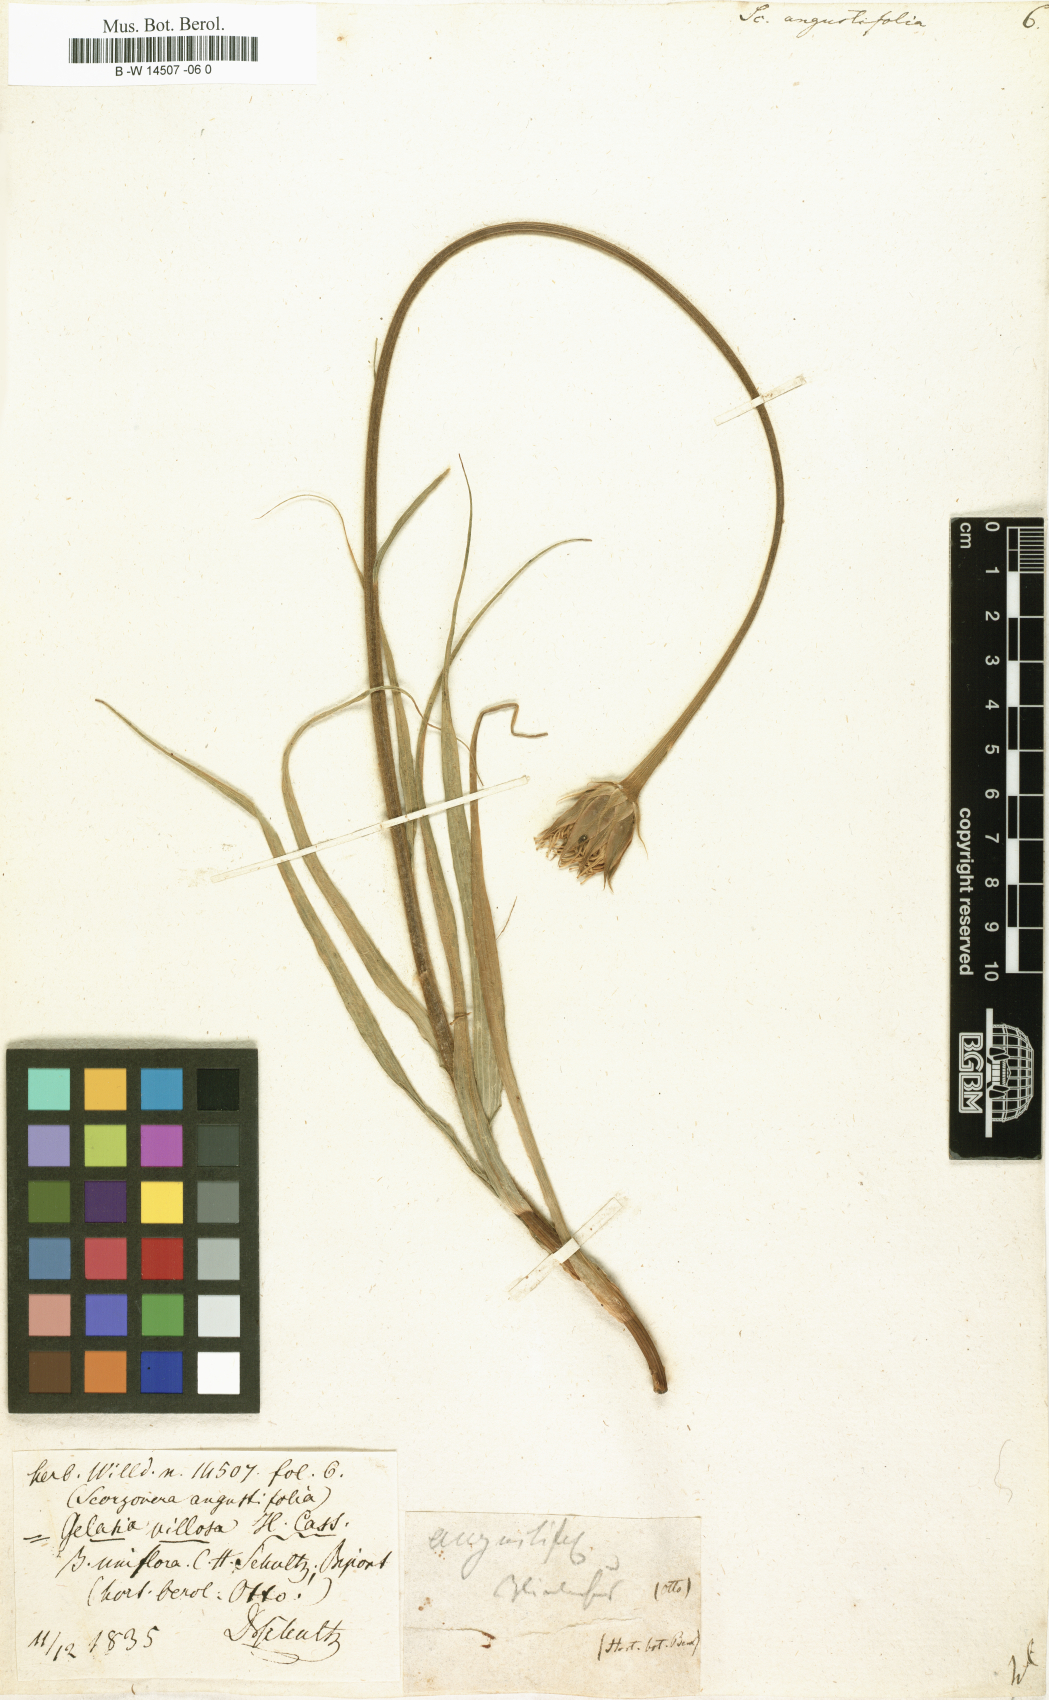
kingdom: Plantae
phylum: Tracheophyta
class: Magnoliopsida
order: Asterales
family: Asteraceae
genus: Scorzonera
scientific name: Scorzonera angustifolia
